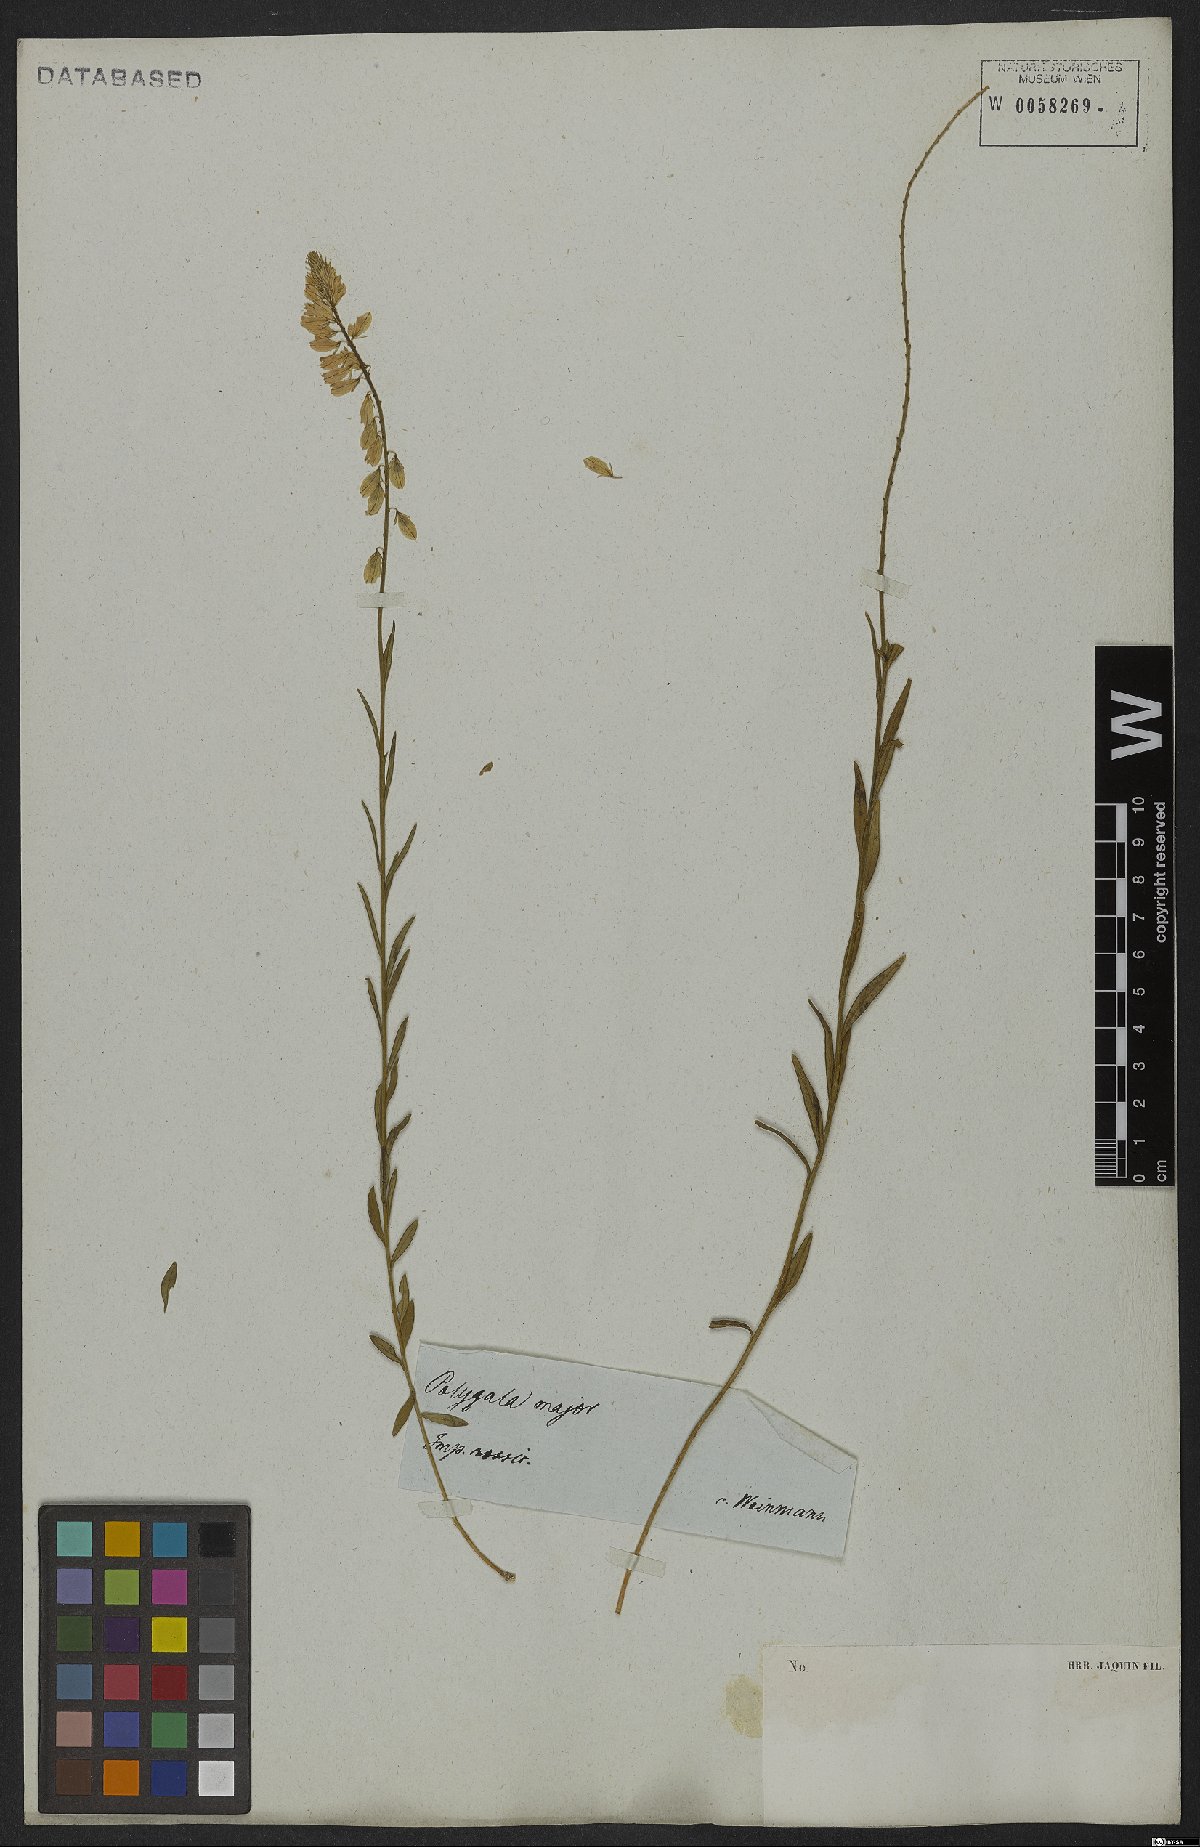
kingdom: Plantae
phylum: Tracheophyta
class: Magnoliopsida
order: Fabales
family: Polygalaceae
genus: Polygala
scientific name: Polygala major
